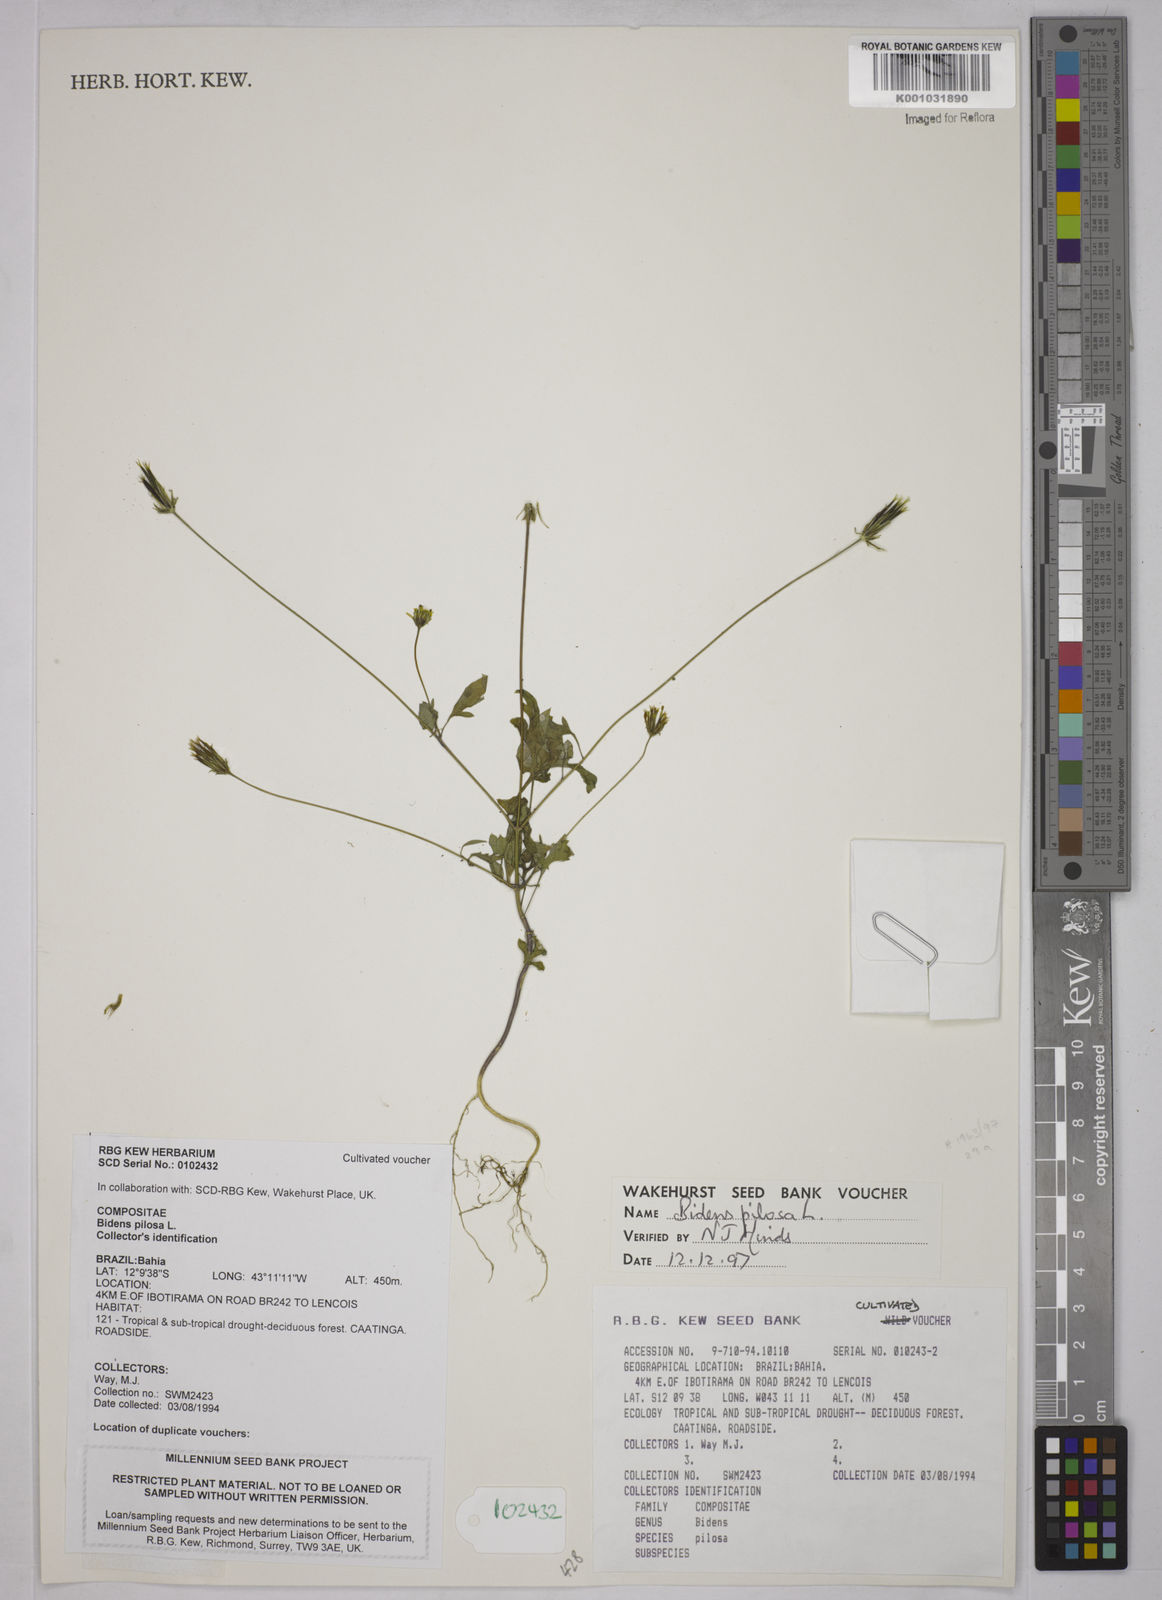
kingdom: Plantae
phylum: Tracheophyta
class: Magnoliopsida
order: Asterales
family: Asteraceae
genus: Bidens
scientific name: Bidens pilosa
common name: Black-jack
